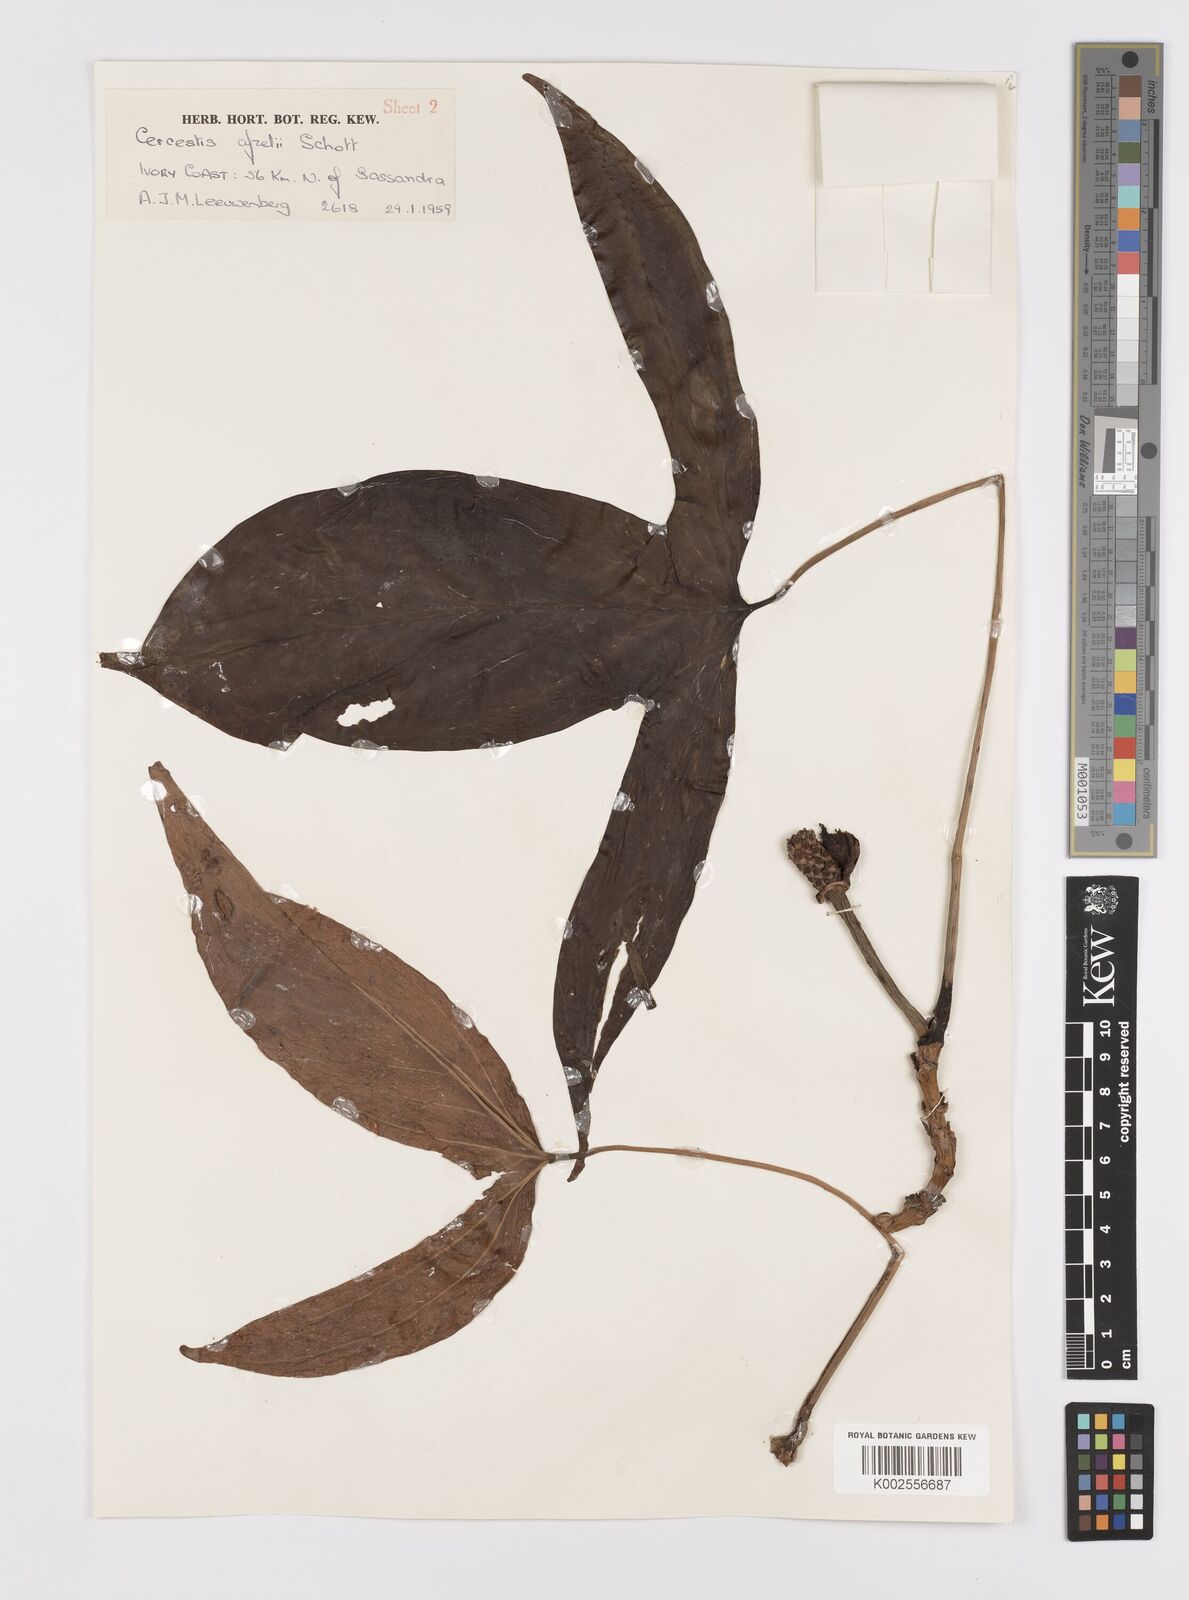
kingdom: Plantae
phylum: Tracheophyta
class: Liliopsida
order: Alismatales
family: Araceae
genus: Cercestis
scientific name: Cercestis afzelii
